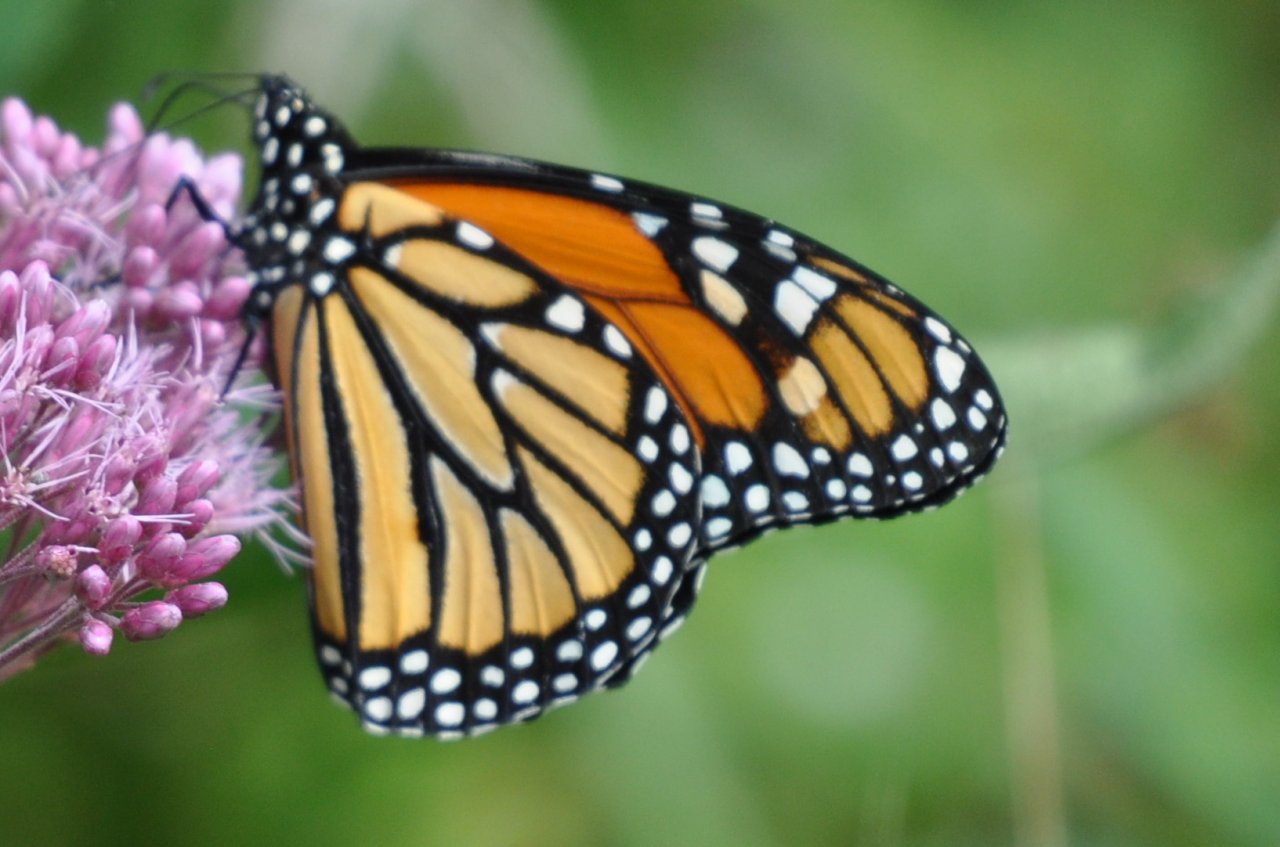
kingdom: Animalia
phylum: Arthropoda
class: Insecta
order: Lepidoptera
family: Nymphalidae
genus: Danaus
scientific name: Danaus plexippus
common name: Monarch
